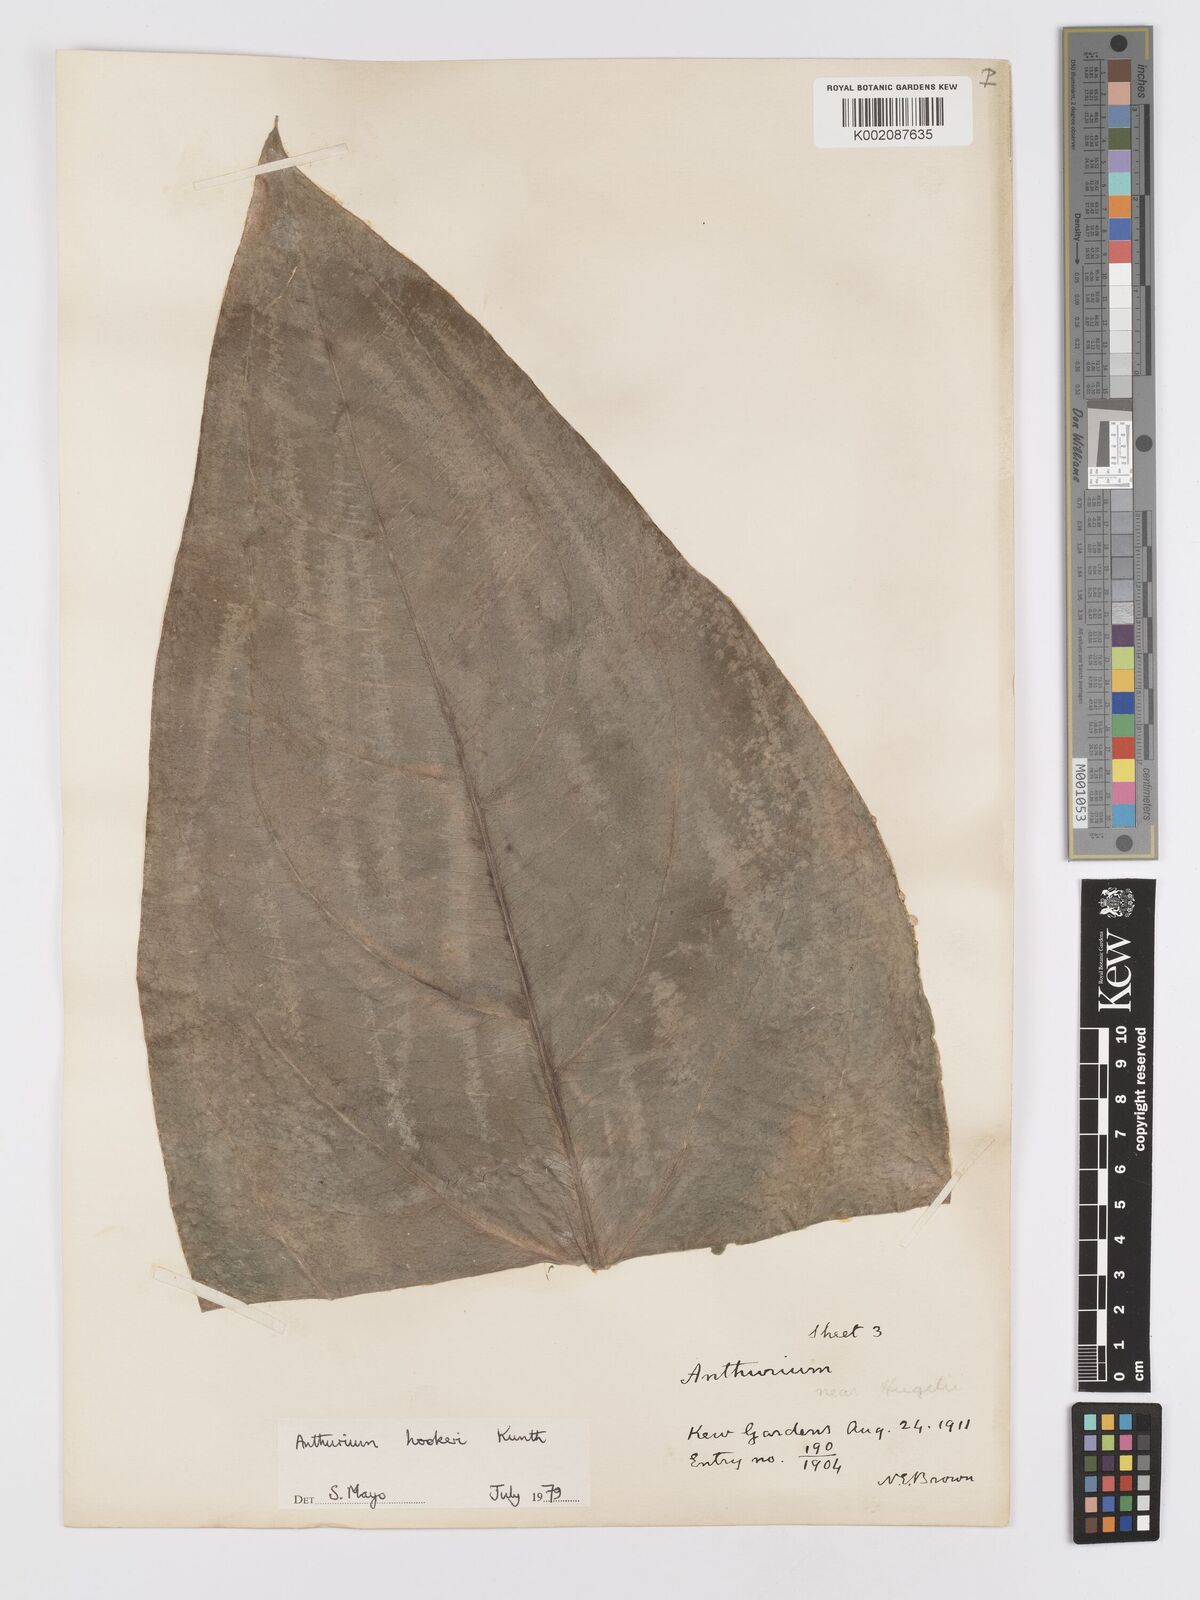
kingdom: Plantae
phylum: Tracheophyta
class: Liliopsida
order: Alismatales
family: Araceae
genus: Anthurium
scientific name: Anthurium hookeri
